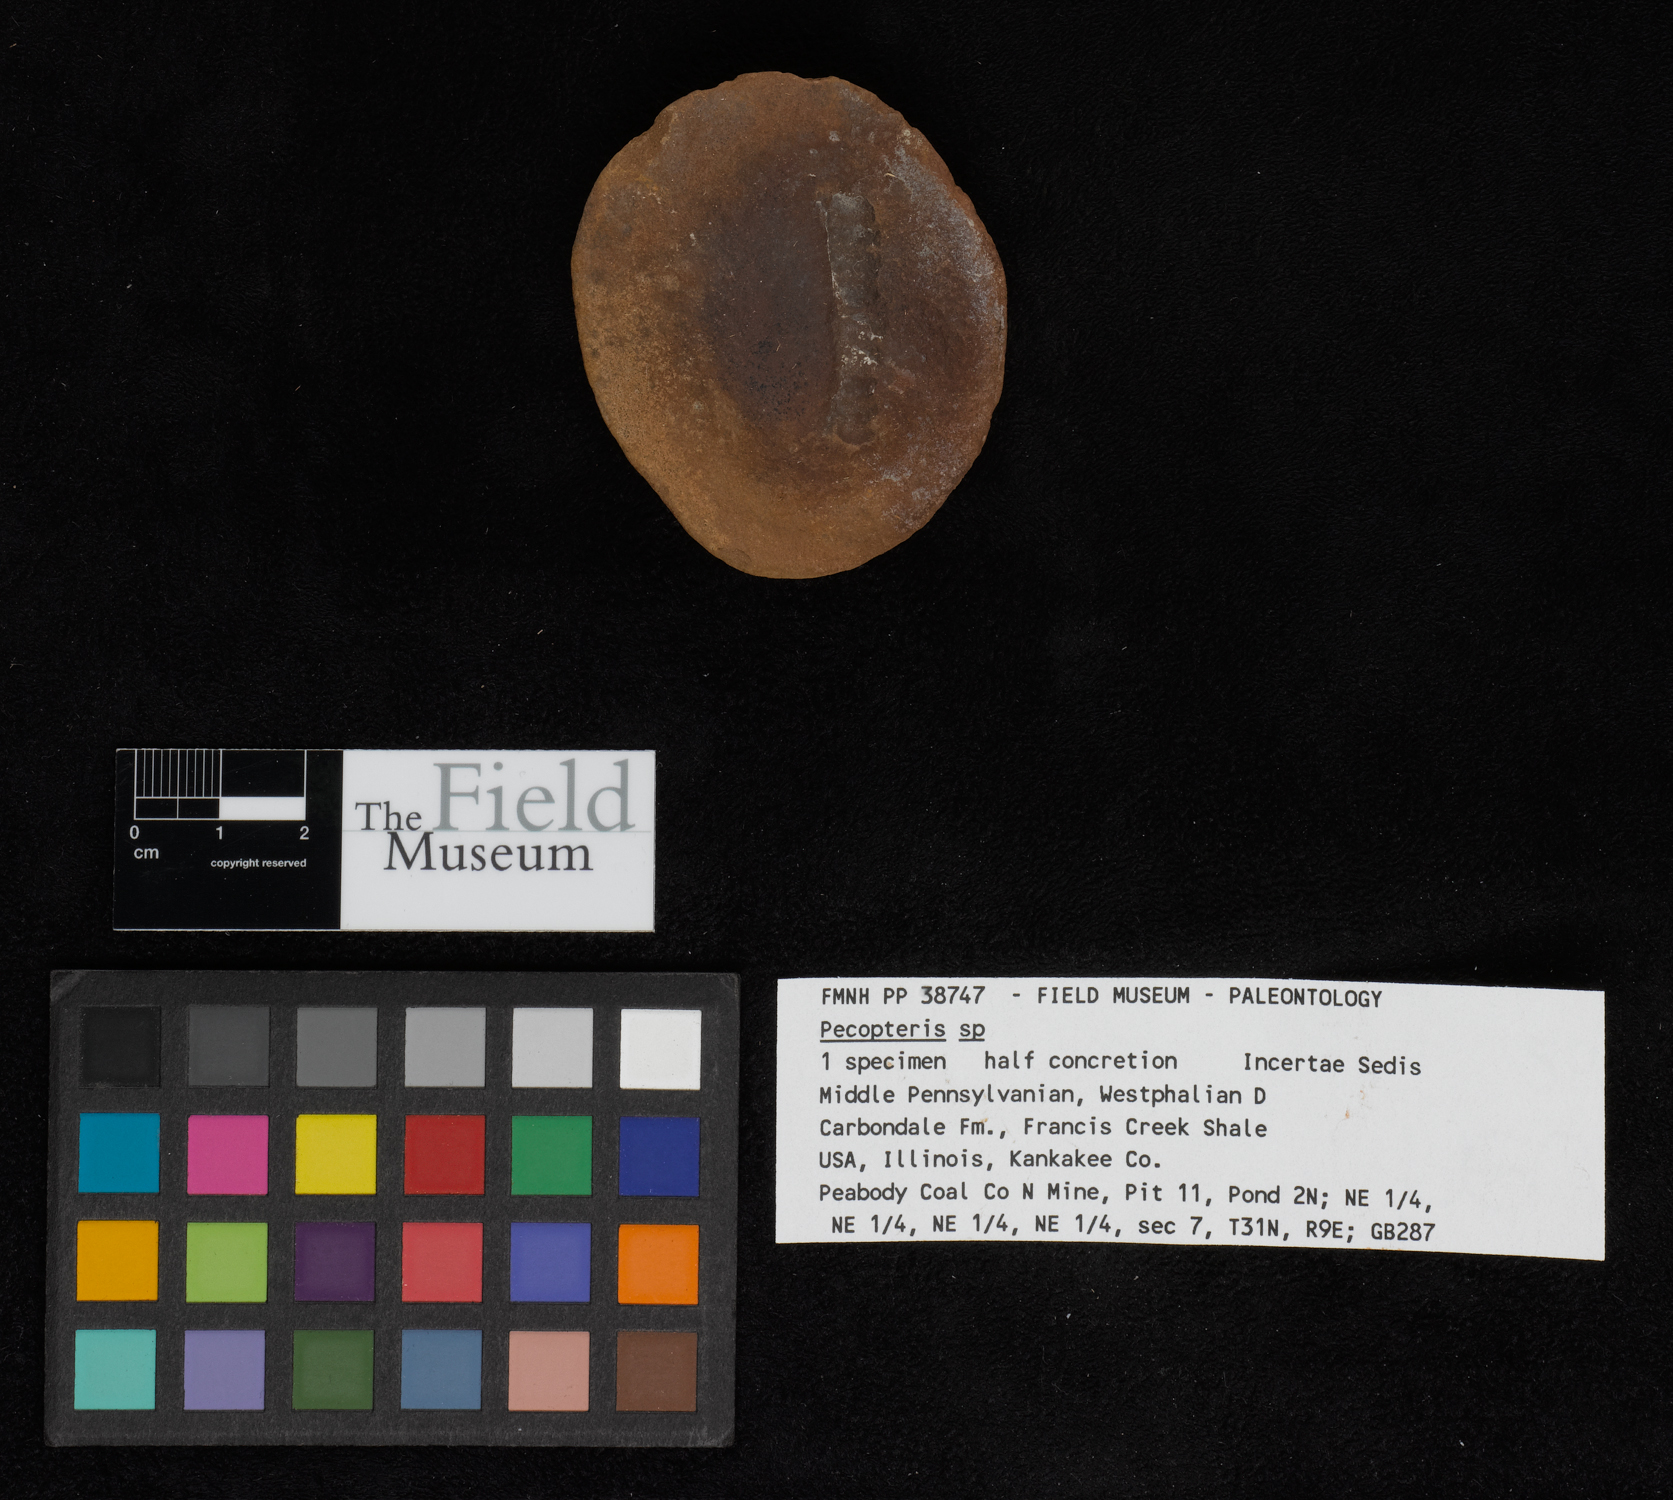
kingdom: Plantae
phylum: Tracheophyta
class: Polypodiopsida
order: Marattiales
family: Asterothecaceae
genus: Pecopteris
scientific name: Pecopteris
